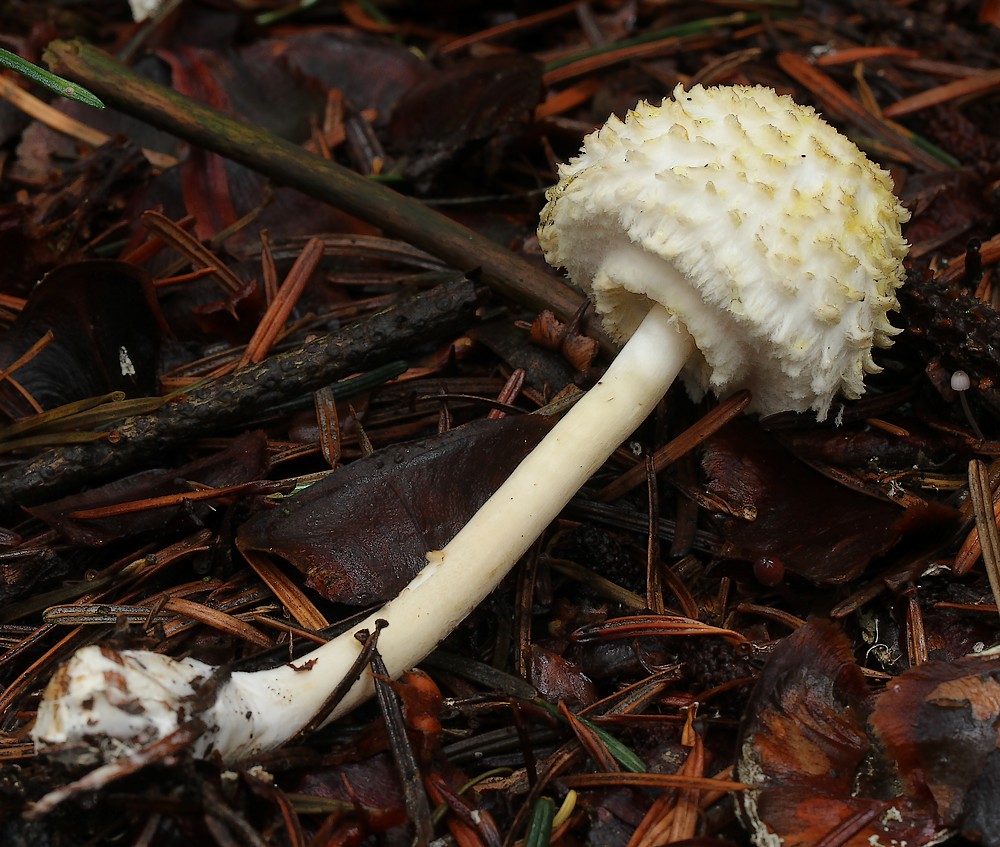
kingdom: Fungi
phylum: Basidiomycota
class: Agaricomycetes
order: Agaricales
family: Agaricaceae
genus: Leucoagaricus
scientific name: Leucoagaricus nympharum
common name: gran-silkehat
